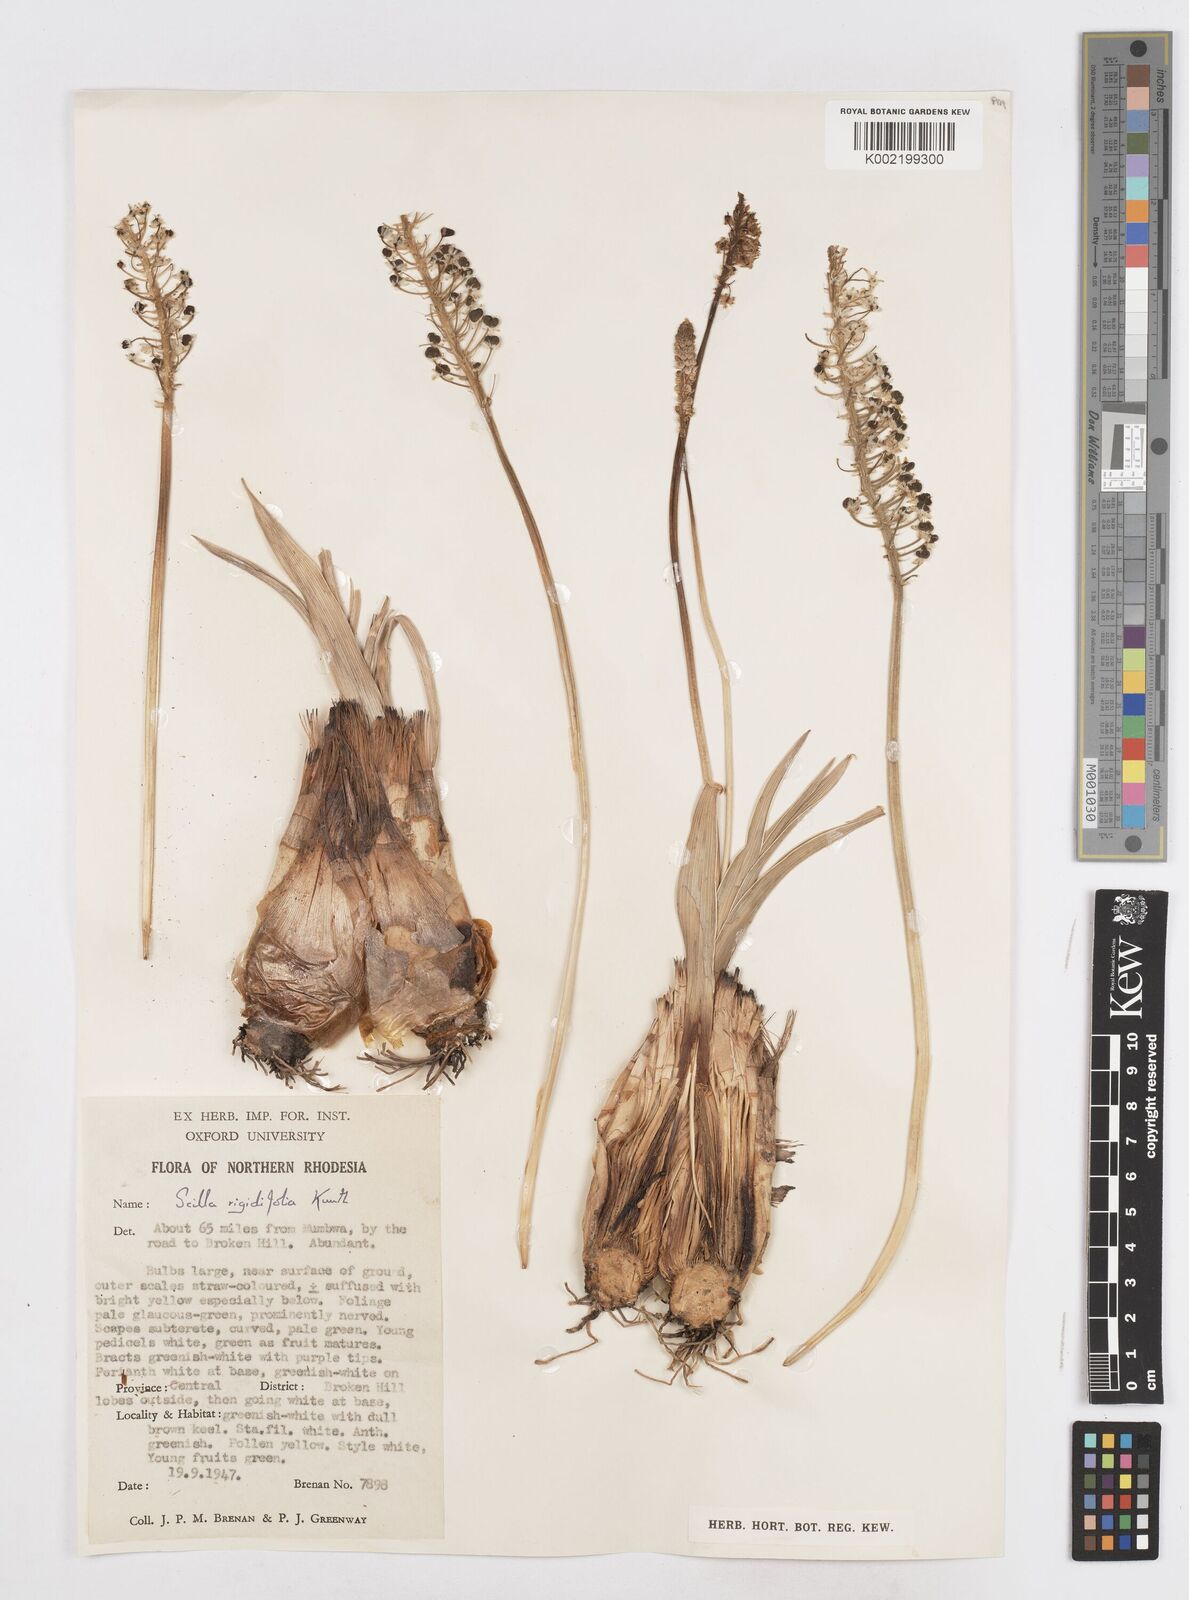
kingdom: Plantae
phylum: Tracheophyta
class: Liliopsida
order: Asparagales
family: Asparagaceae
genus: Schizocarphus
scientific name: Schizocarphus nervosus
